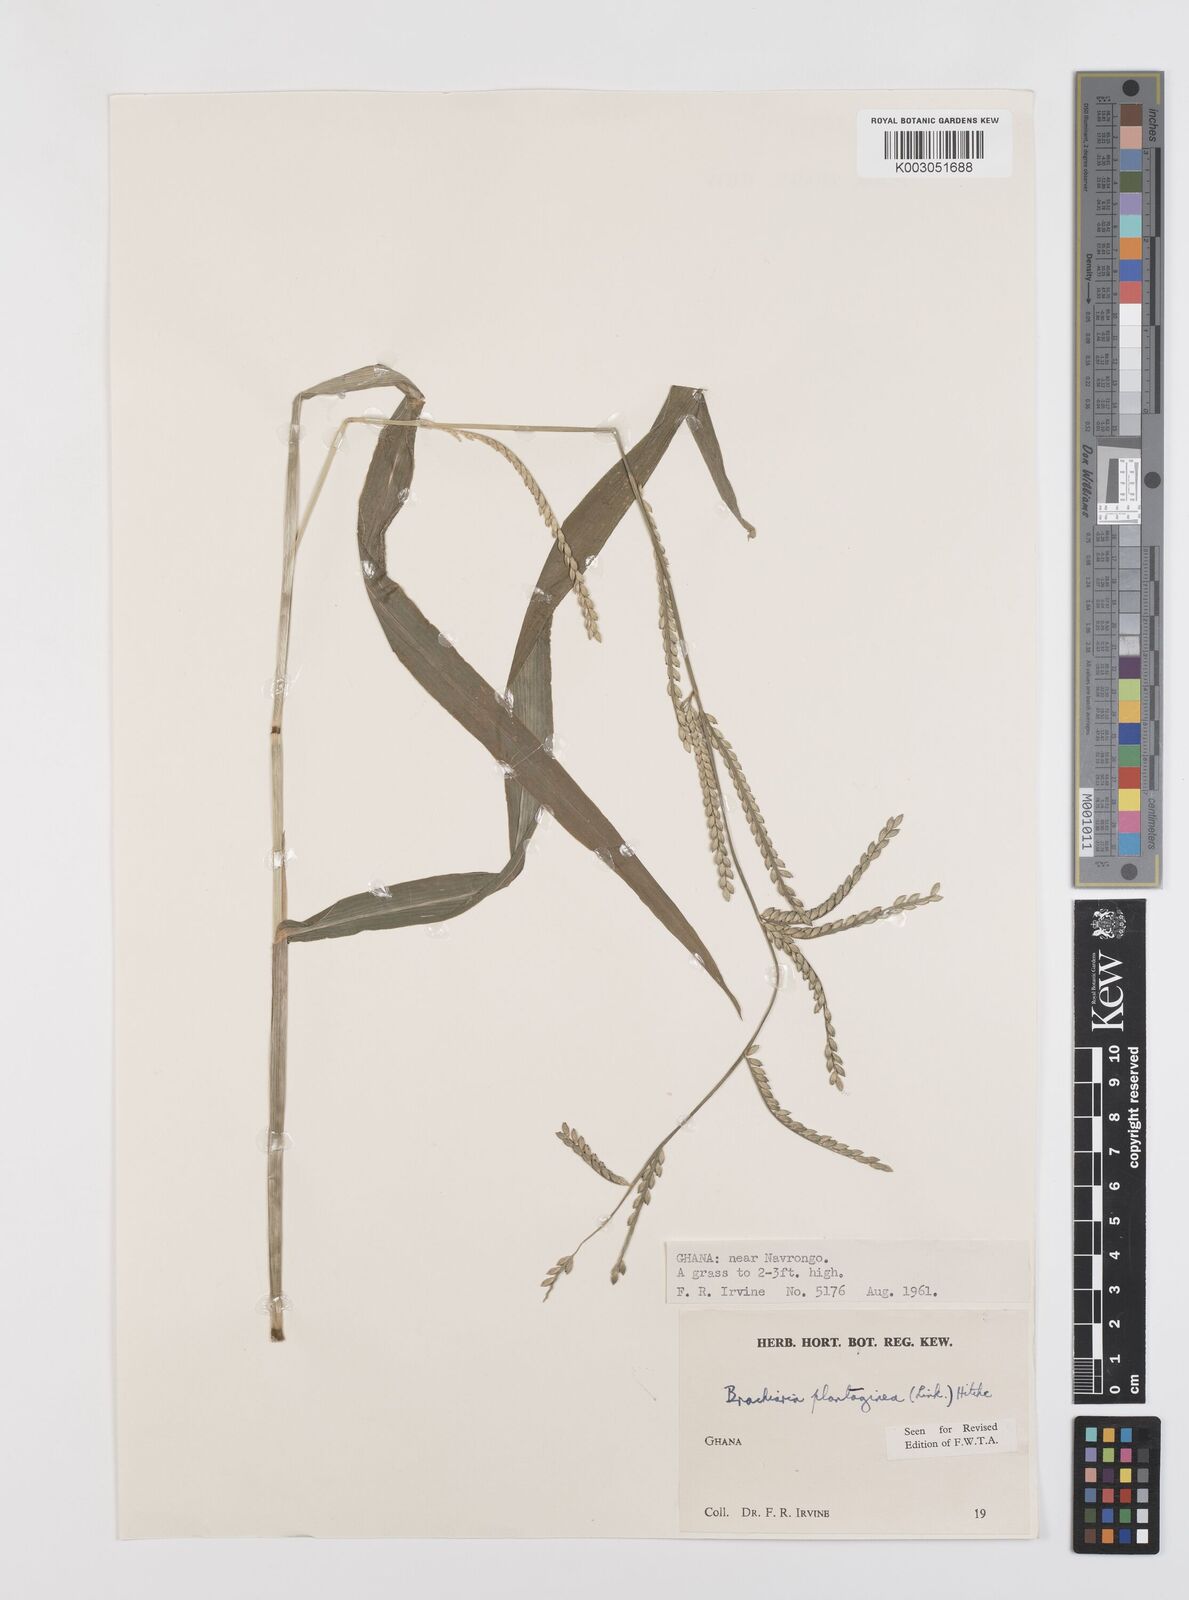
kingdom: Plantae
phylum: Tracheophyta
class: Liliopsida
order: Poales
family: Poaceae
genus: Urochloa
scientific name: Urochloa plantaginea
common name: Plantain signalgrass
